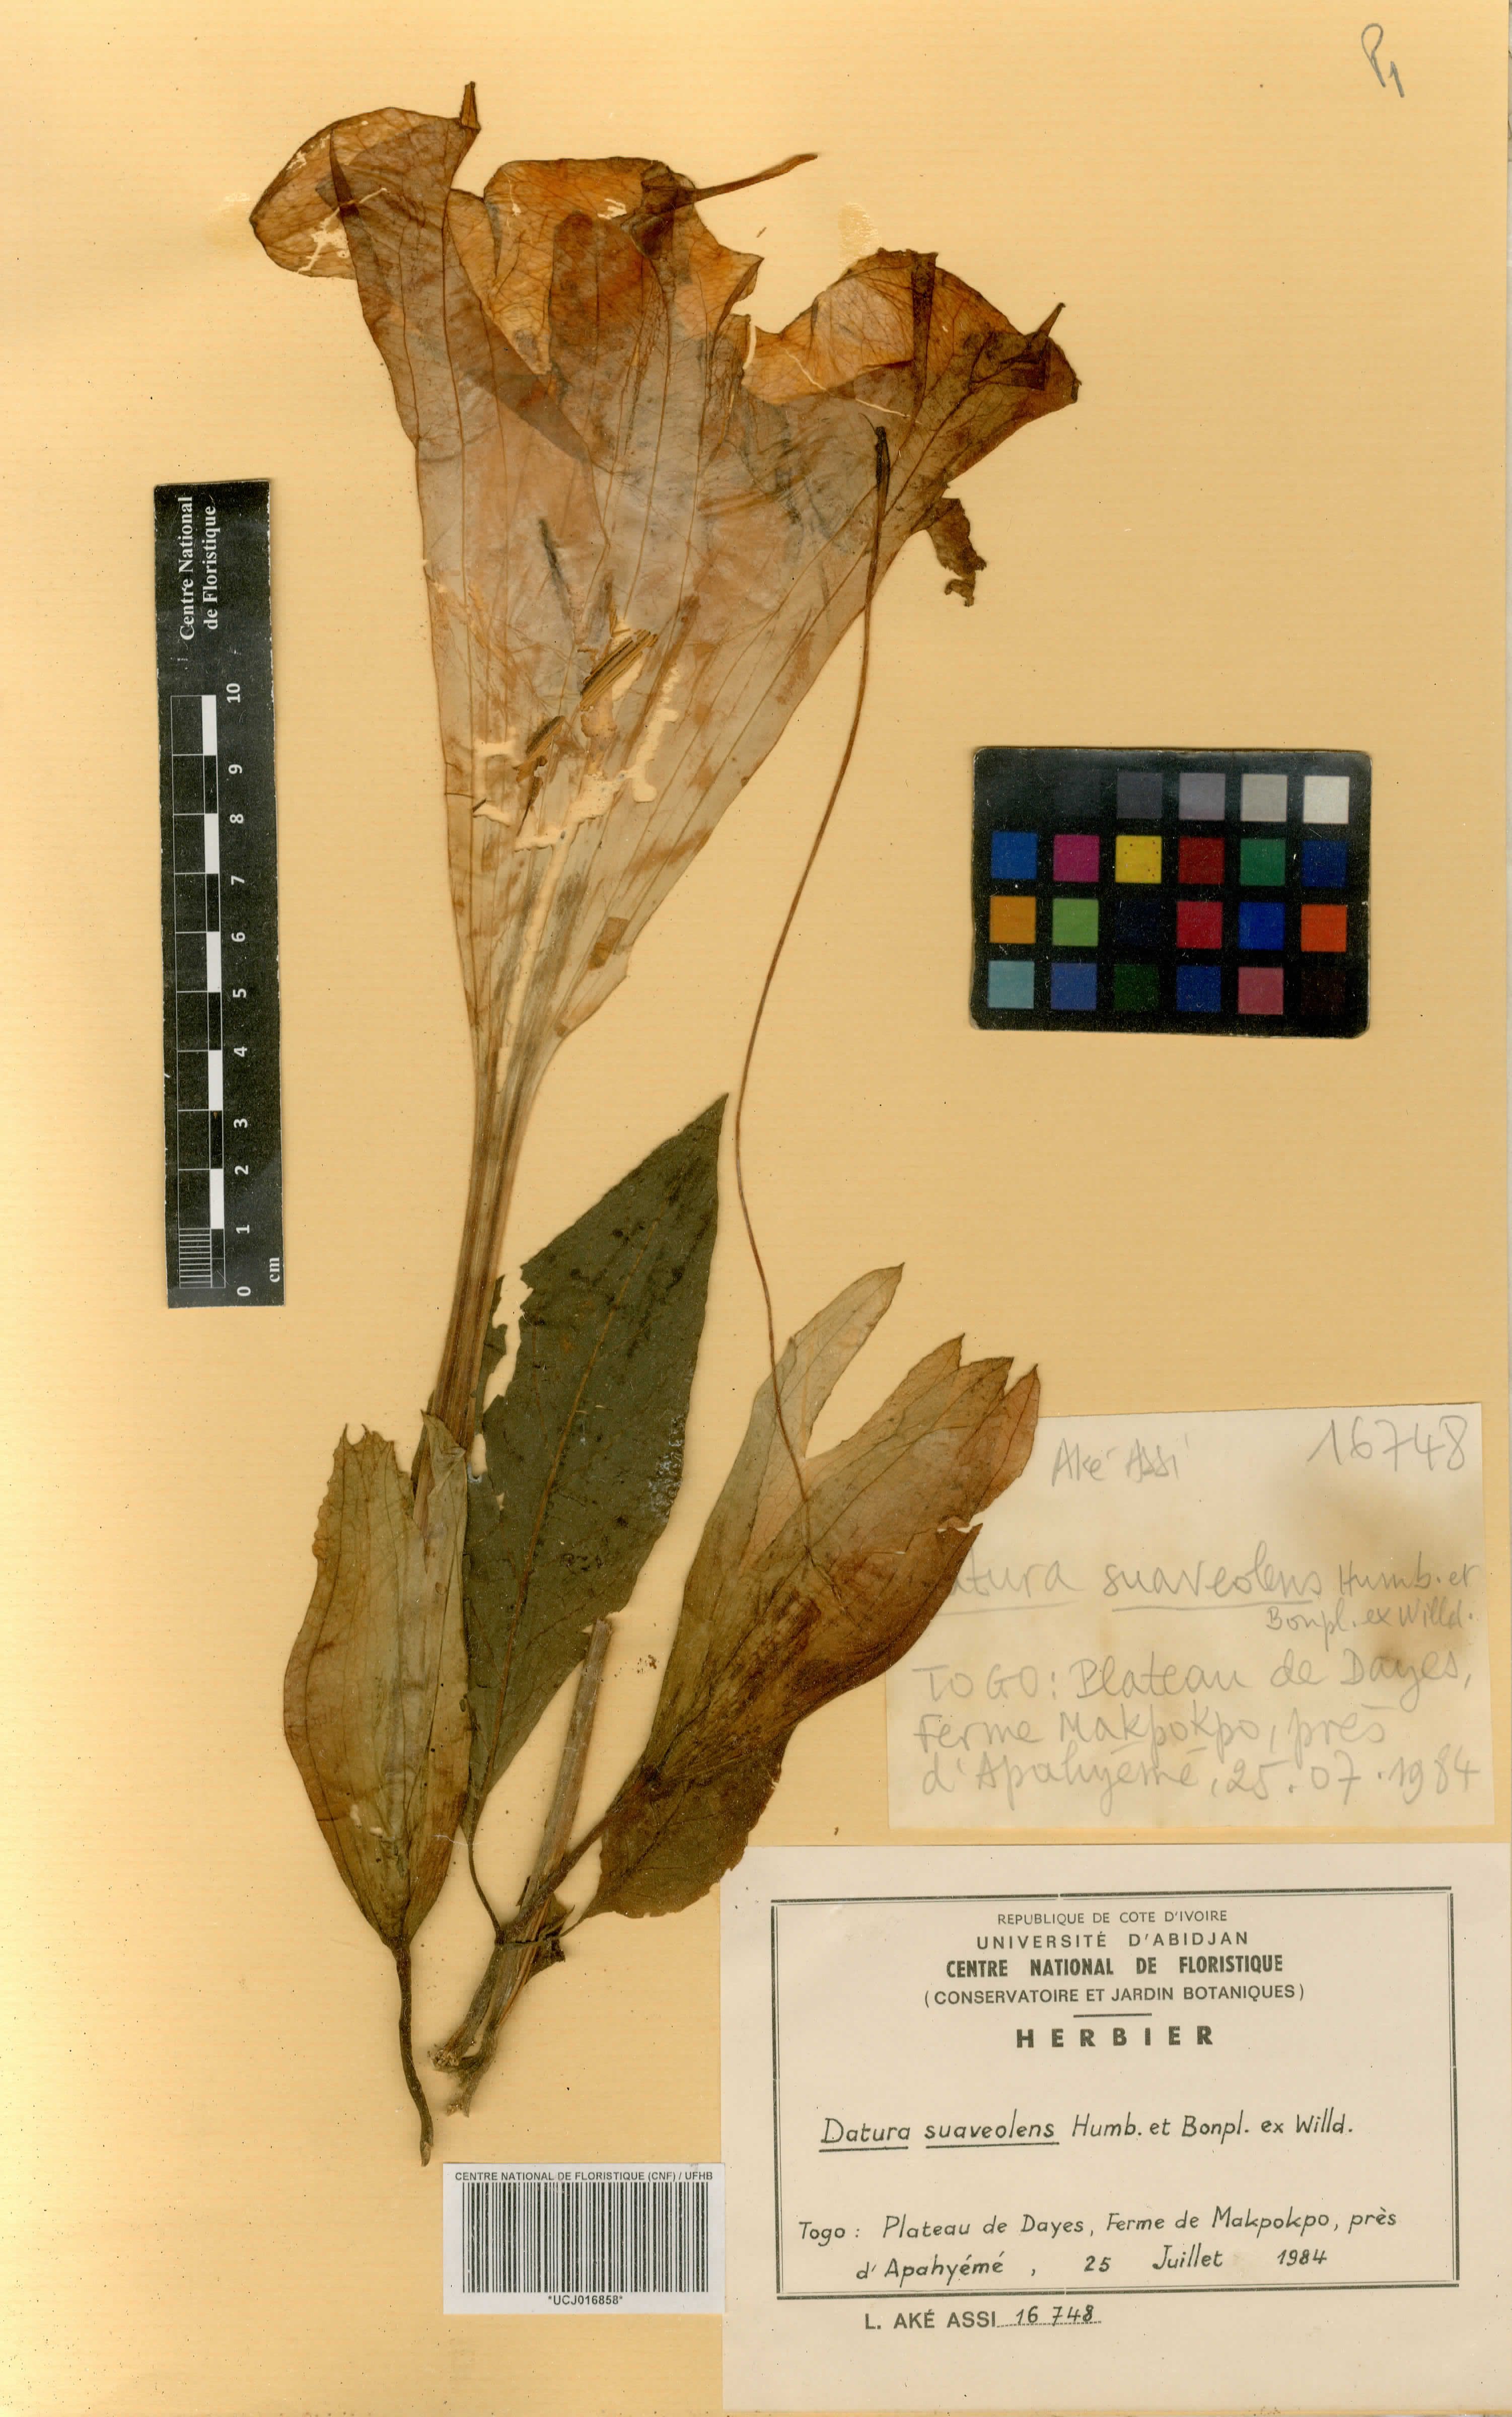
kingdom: Plantae
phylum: Tracheophyta
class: Magnoliopsida
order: Solanales
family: Solanaceae
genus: Brugmansia
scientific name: Brugmansia suaveolens
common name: Angel's tears
